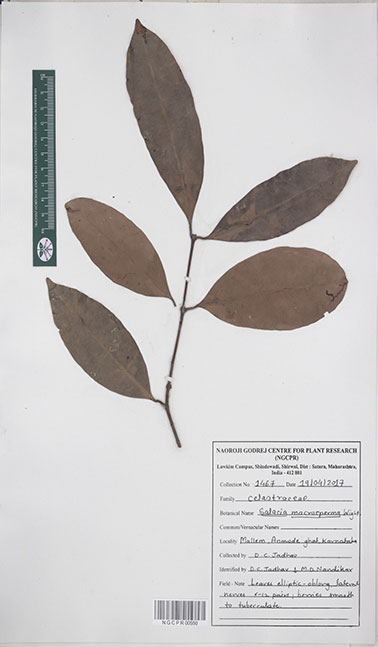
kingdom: Plantae
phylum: Tracheophyta
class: Magnoliopsida
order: Celastrales
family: Celastraceae
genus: Salacia
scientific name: Salacia macrosperma
